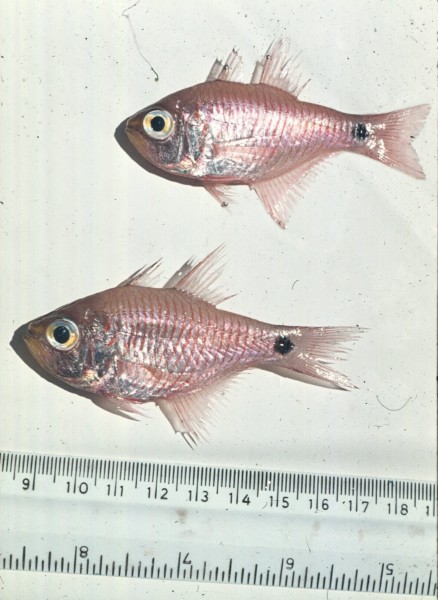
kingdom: Animalia
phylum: Chordata
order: Perciformes
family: Apogonidae
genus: Taeniamia
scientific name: Taeniamia fucata
